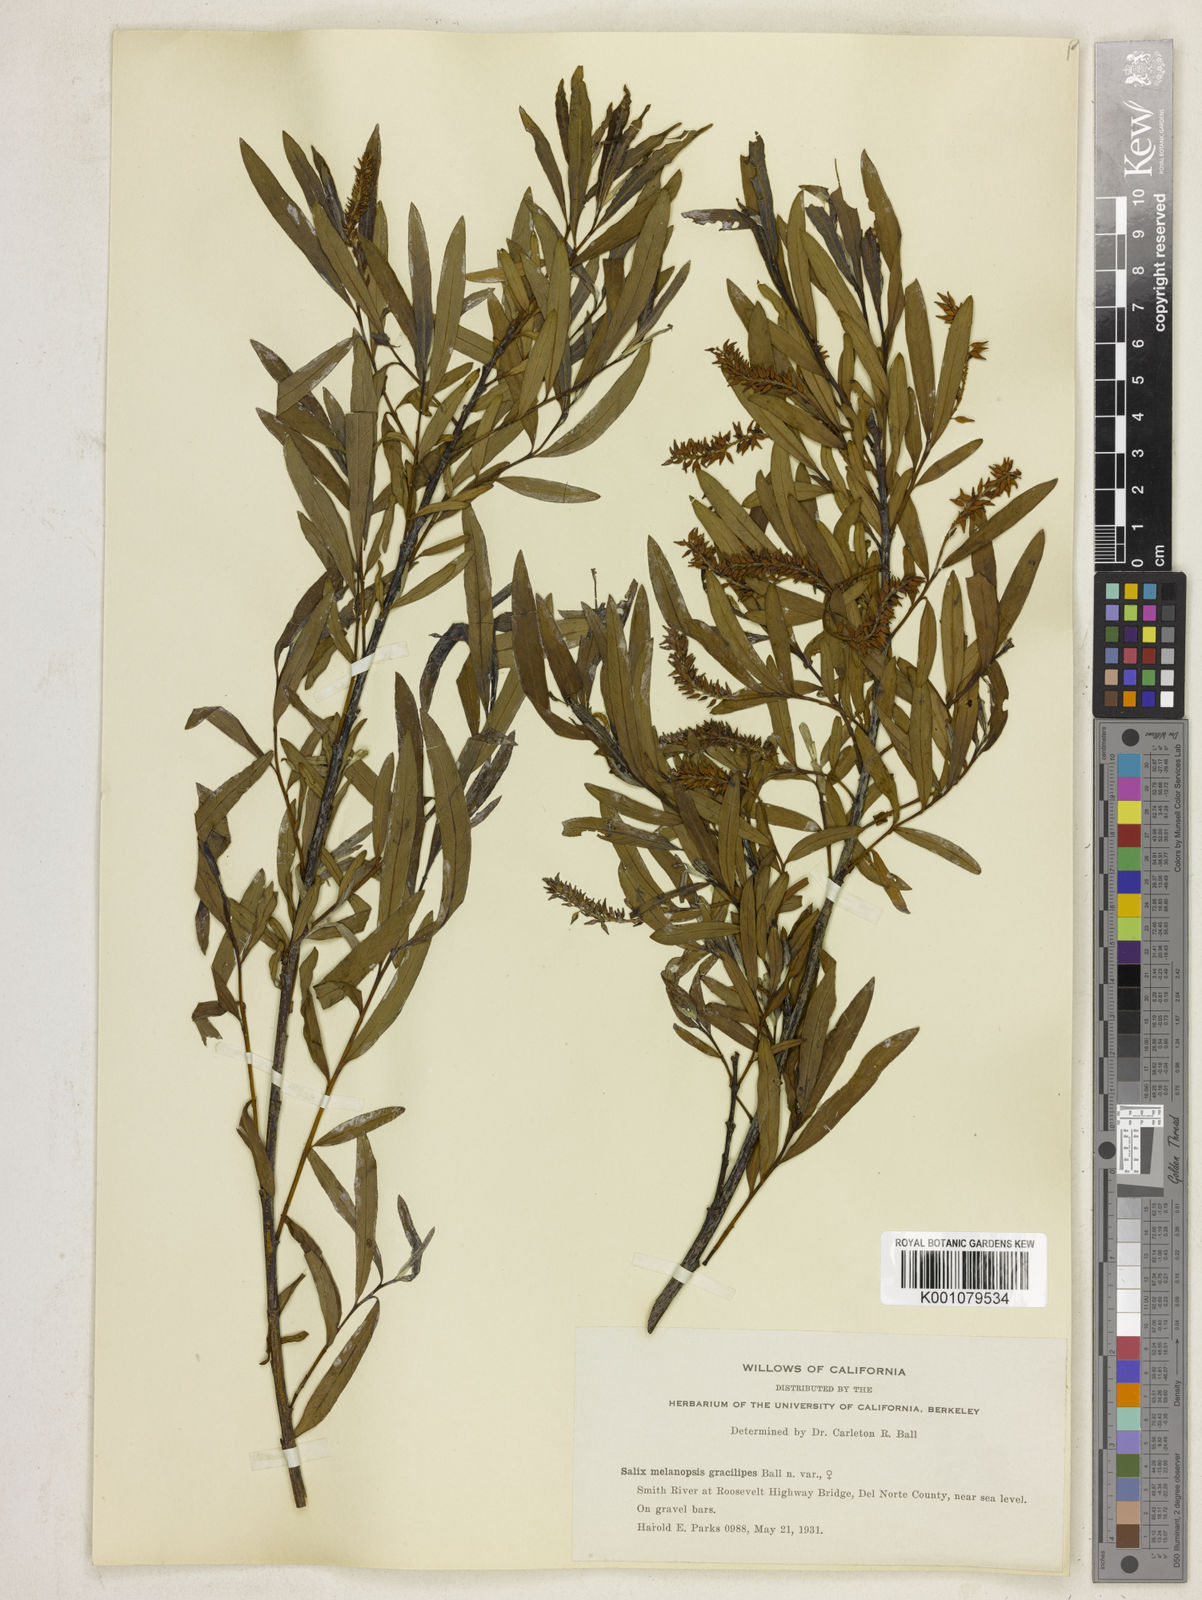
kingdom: Plantae
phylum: Tracheophyta
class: Magnoliopsida
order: Malpighiales
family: Salicaceae
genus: Salix
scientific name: Salix melanopsis
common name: Dusky willow
